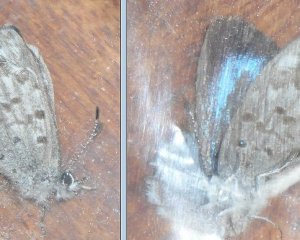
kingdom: Animalia
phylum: Arthropoda
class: Insecta
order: Lepidoptera
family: Lycaenidae
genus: Celastrina
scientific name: Celastrina lucia
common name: Northern Spring Azure
